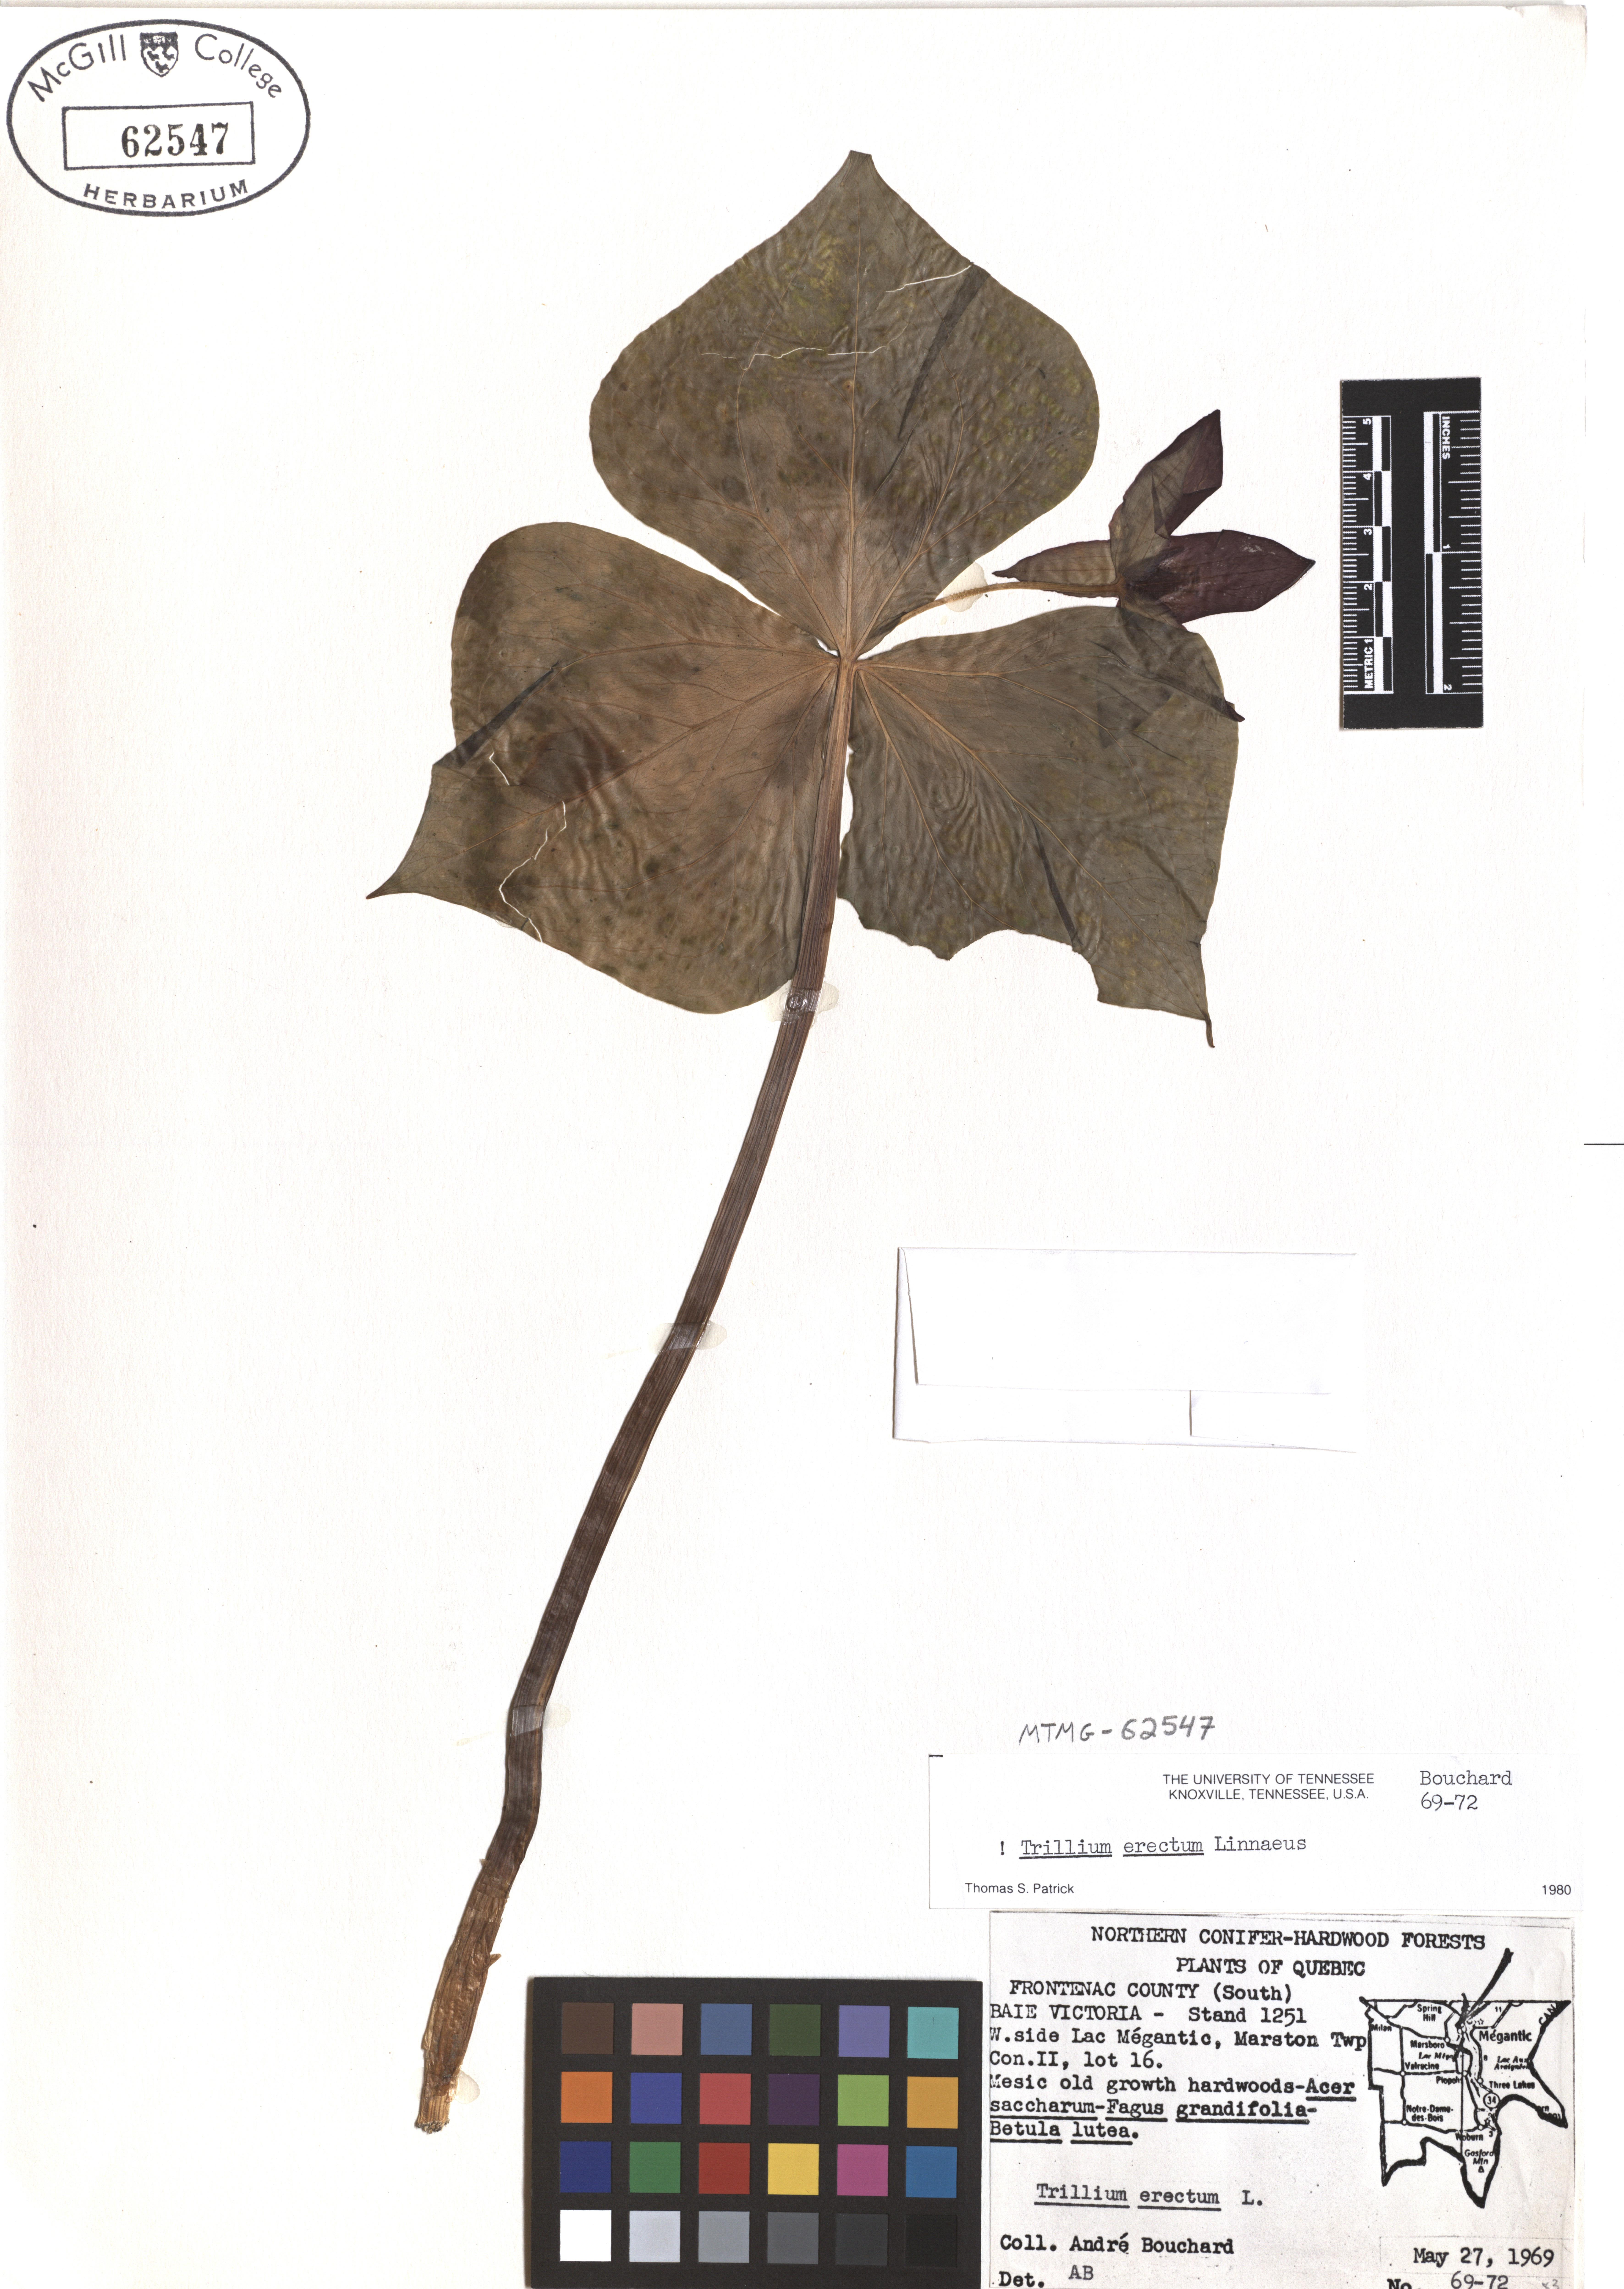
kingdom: Plantae
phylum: Tracheophyta
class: Liliopsida
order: Liliales
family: Melanthiaceae
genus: Trillium
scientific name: Trillium erectum
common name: Purple trillium
